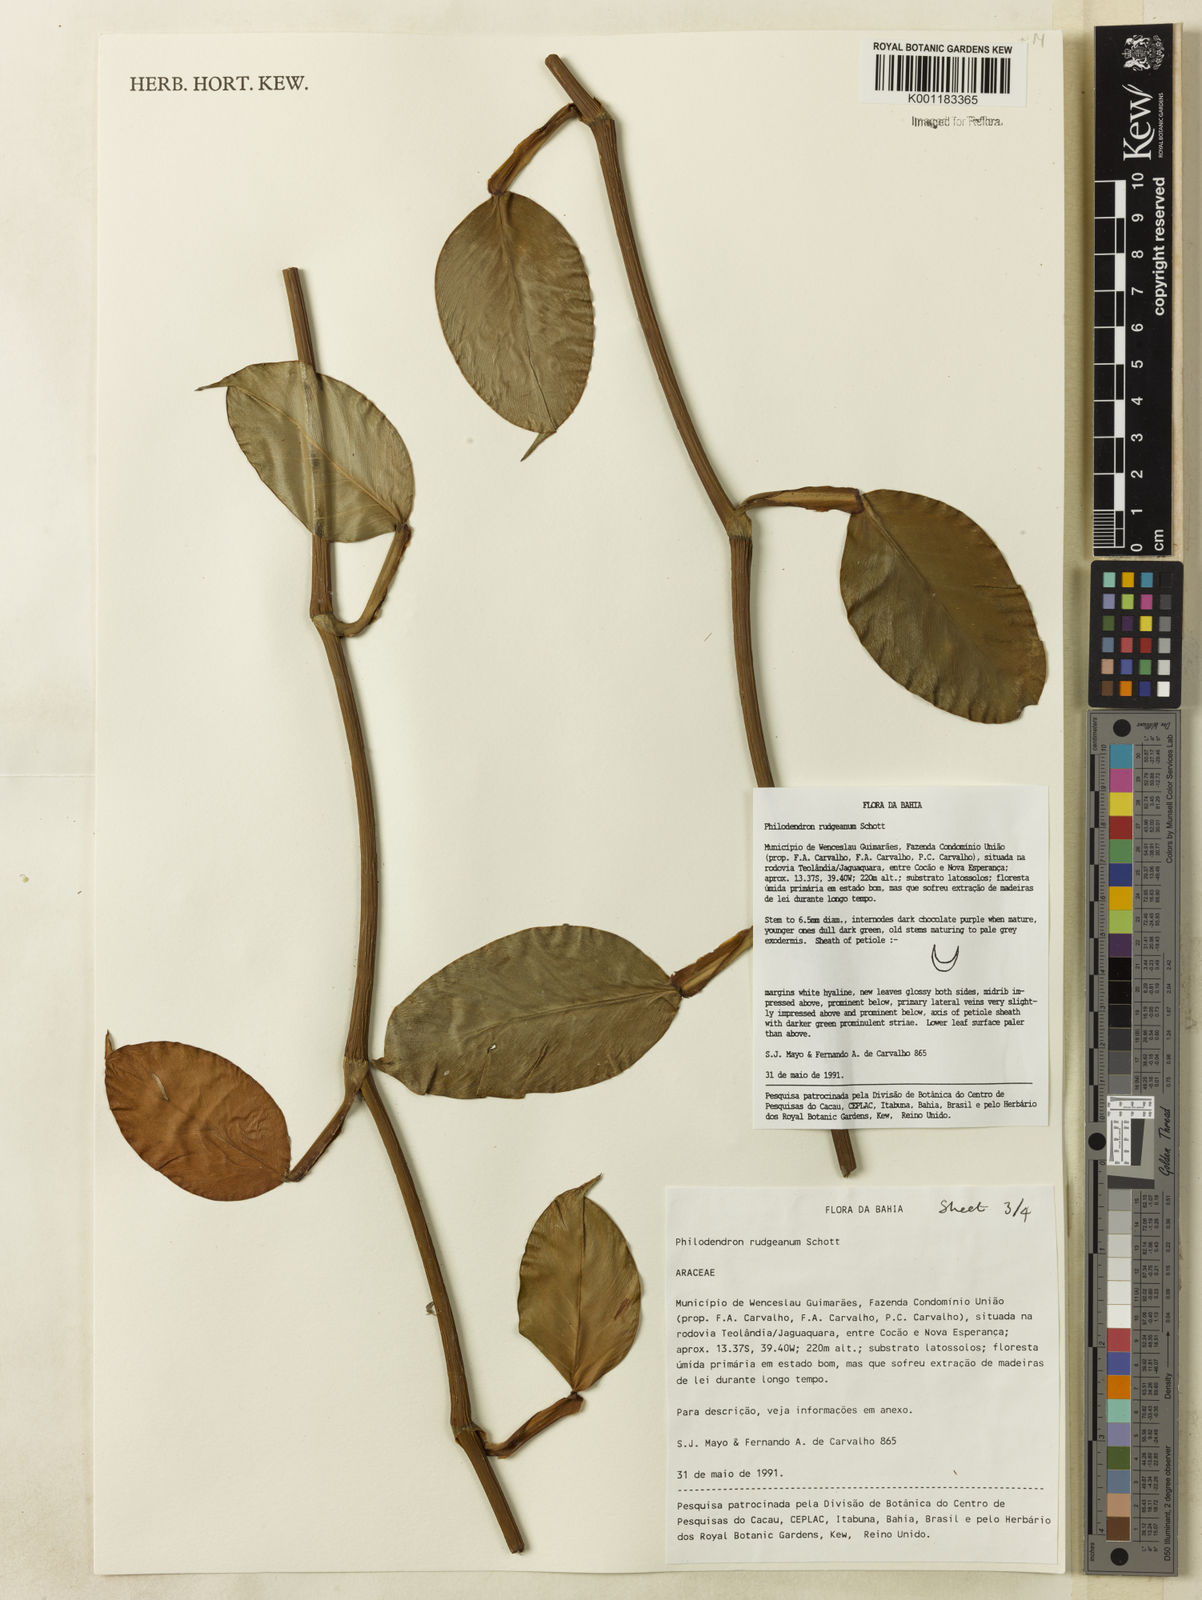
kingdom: Plantae
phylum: Tracheophyta
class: Liliopsida
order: Alismatales
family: Araceae
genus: Philodendron
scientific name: Philodendron rudgeanum
